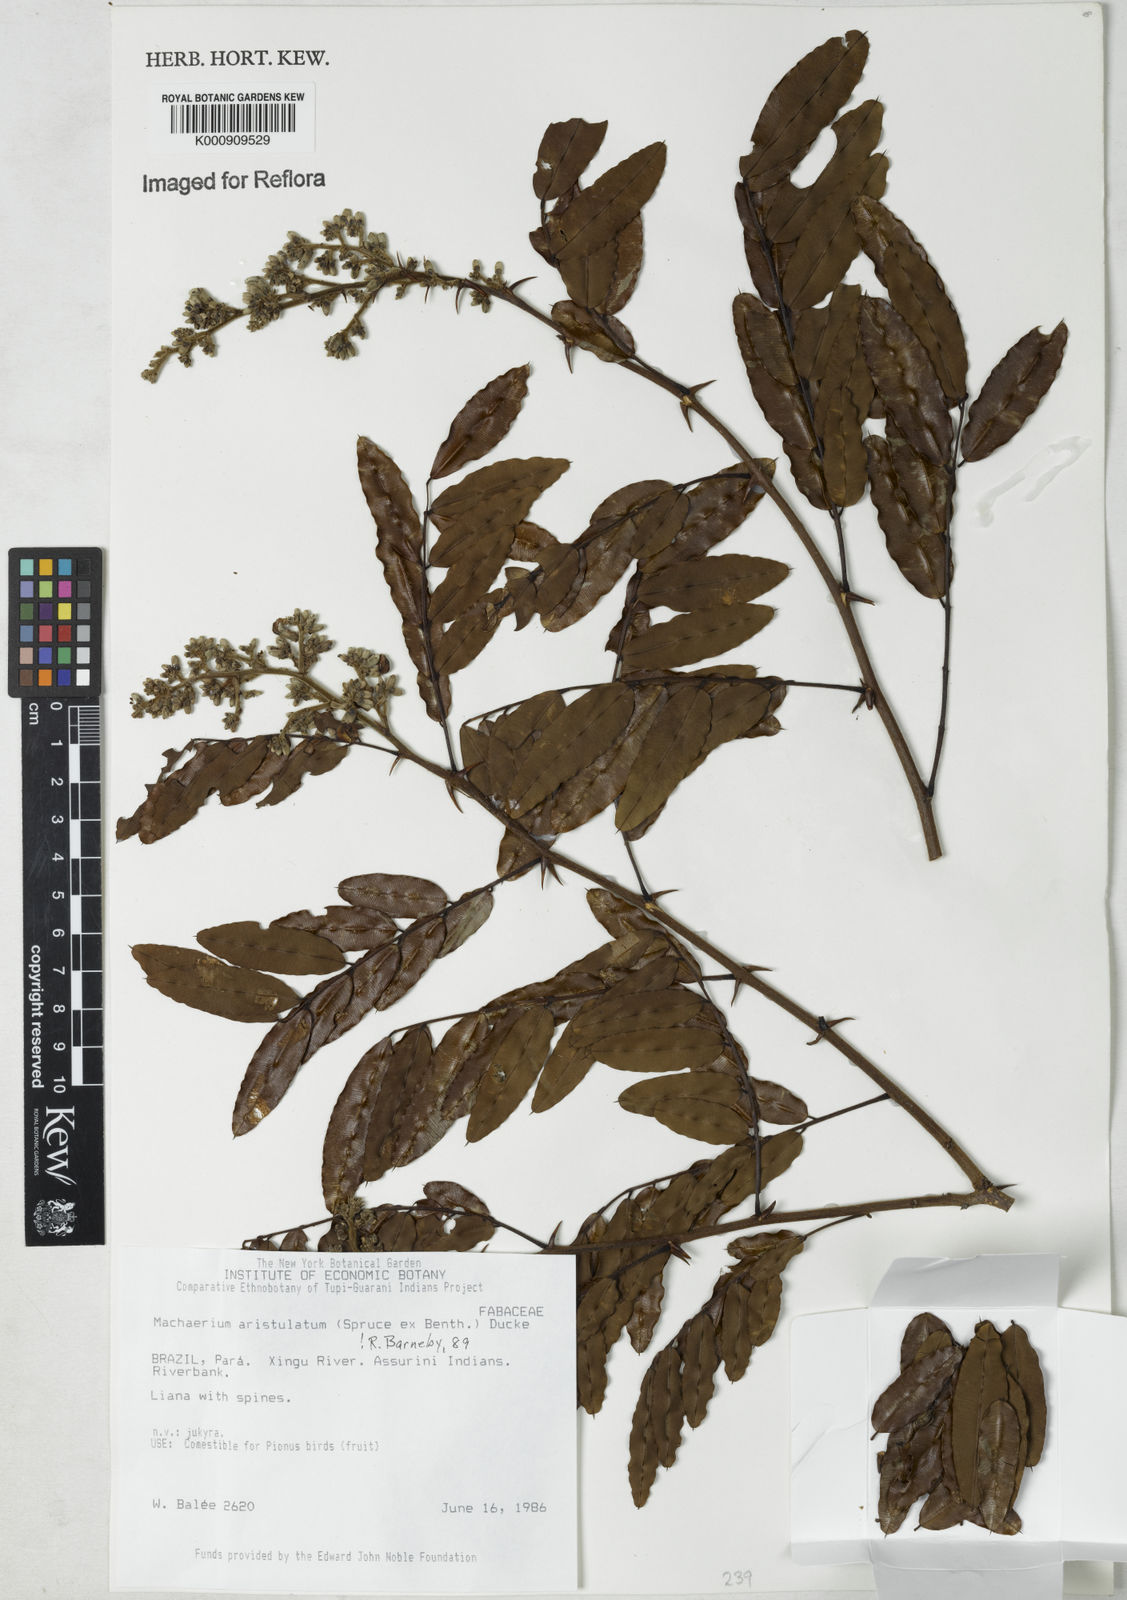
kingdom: Plantae
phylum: Tracheophyta
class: Magnoliopsida
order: Fabales
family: Fabaceae
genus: Machaerium
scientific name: Machaerium aristulatum
